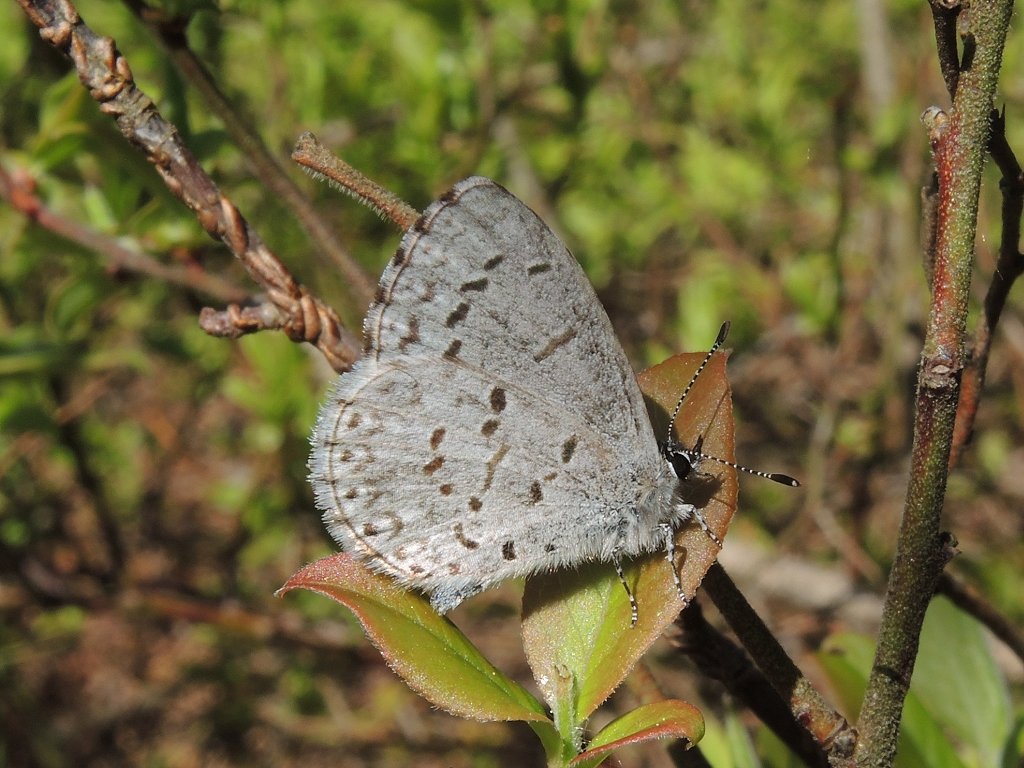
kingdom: Animalia
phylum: Arthropoda
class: Insecta
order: Lepidoptera
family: Lycaenidae
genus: Celastrina
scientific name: Celastrina lucia
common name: Northern Spring Azure
